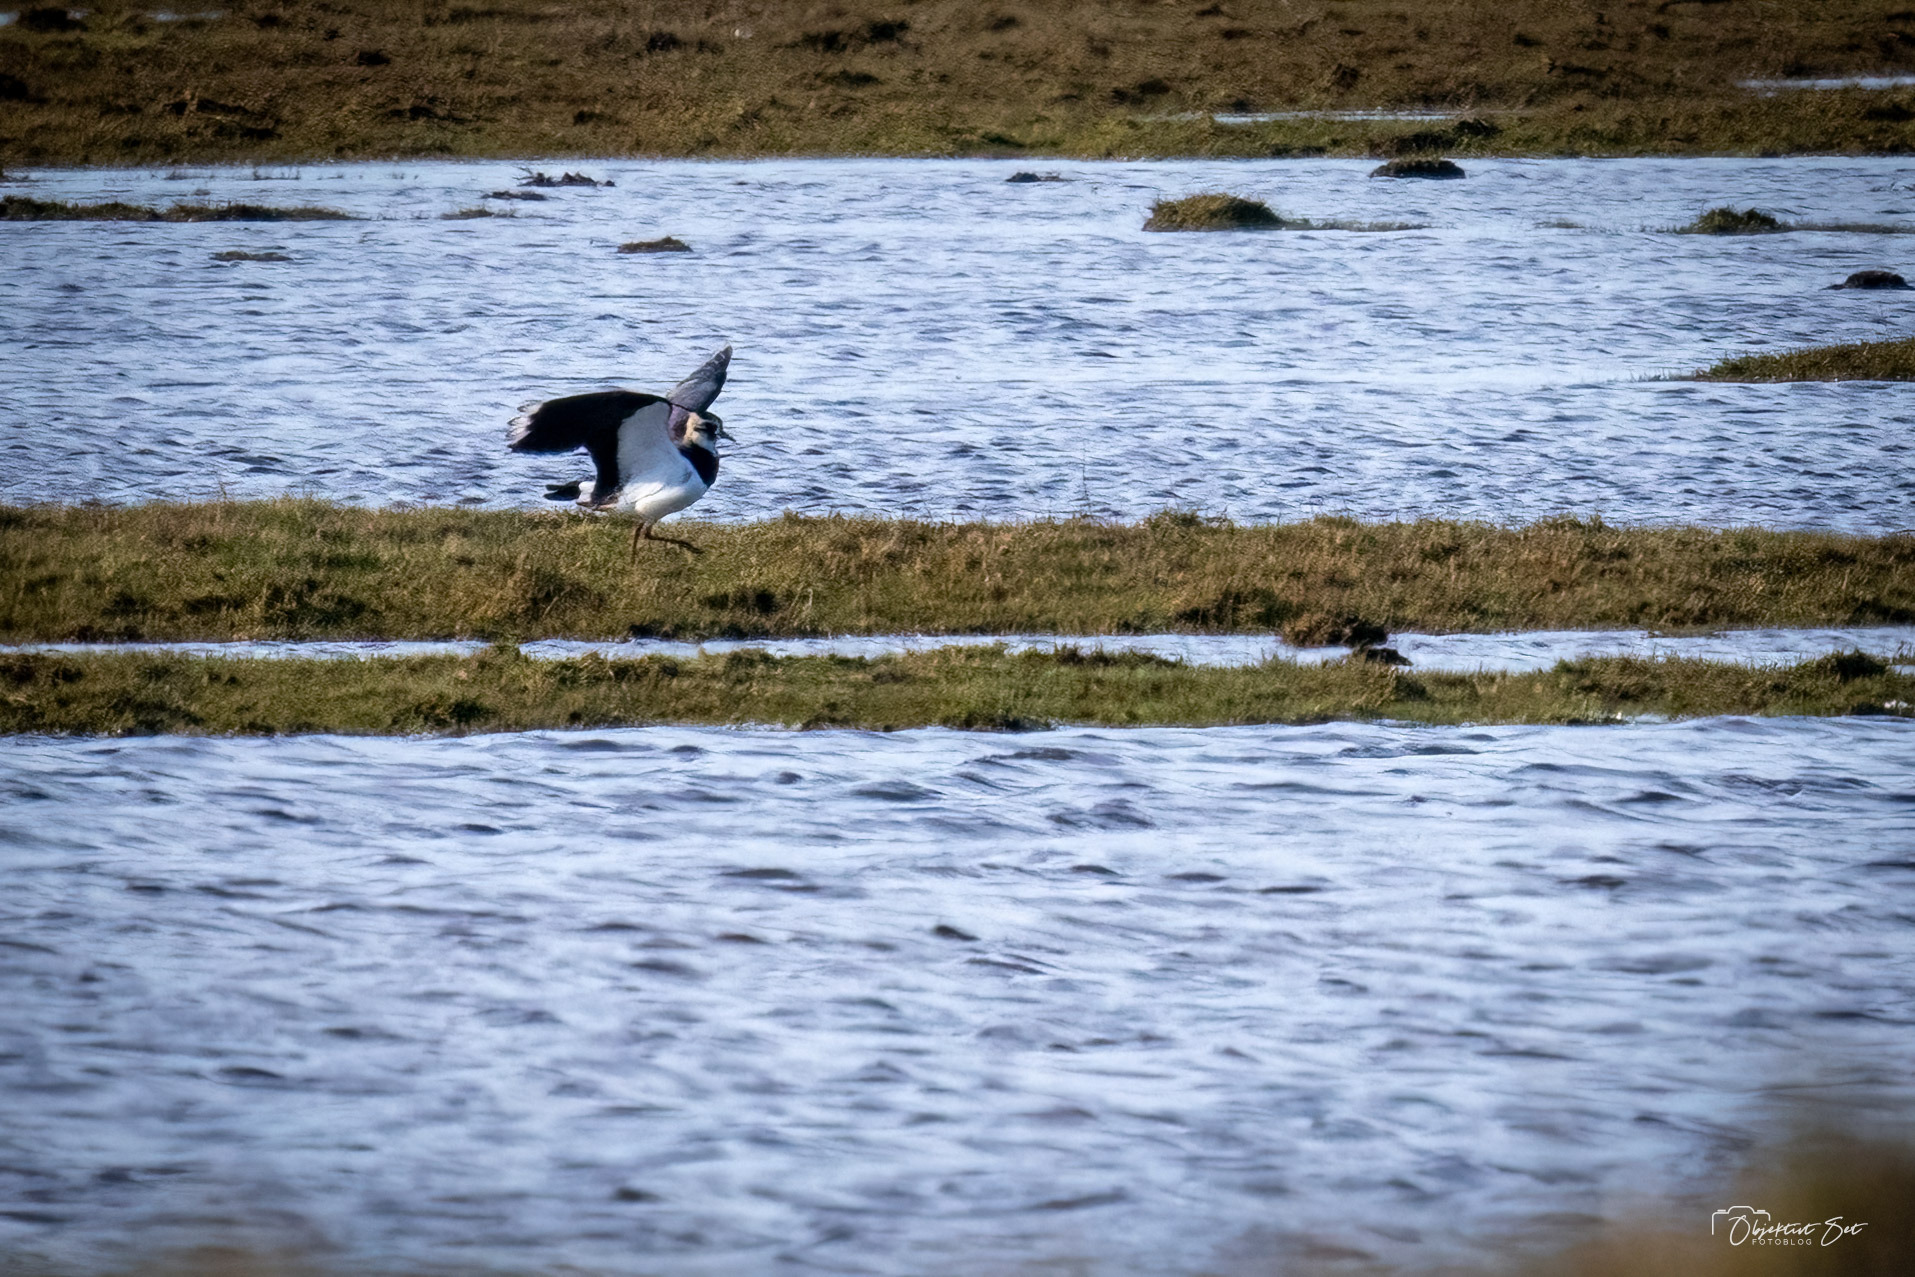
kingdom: Animalia
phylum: Chordata
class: Aves
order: Charadriiformes
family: Charadriidae
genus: Vanellus
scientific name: Vanellus vanellus
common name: Vibe
